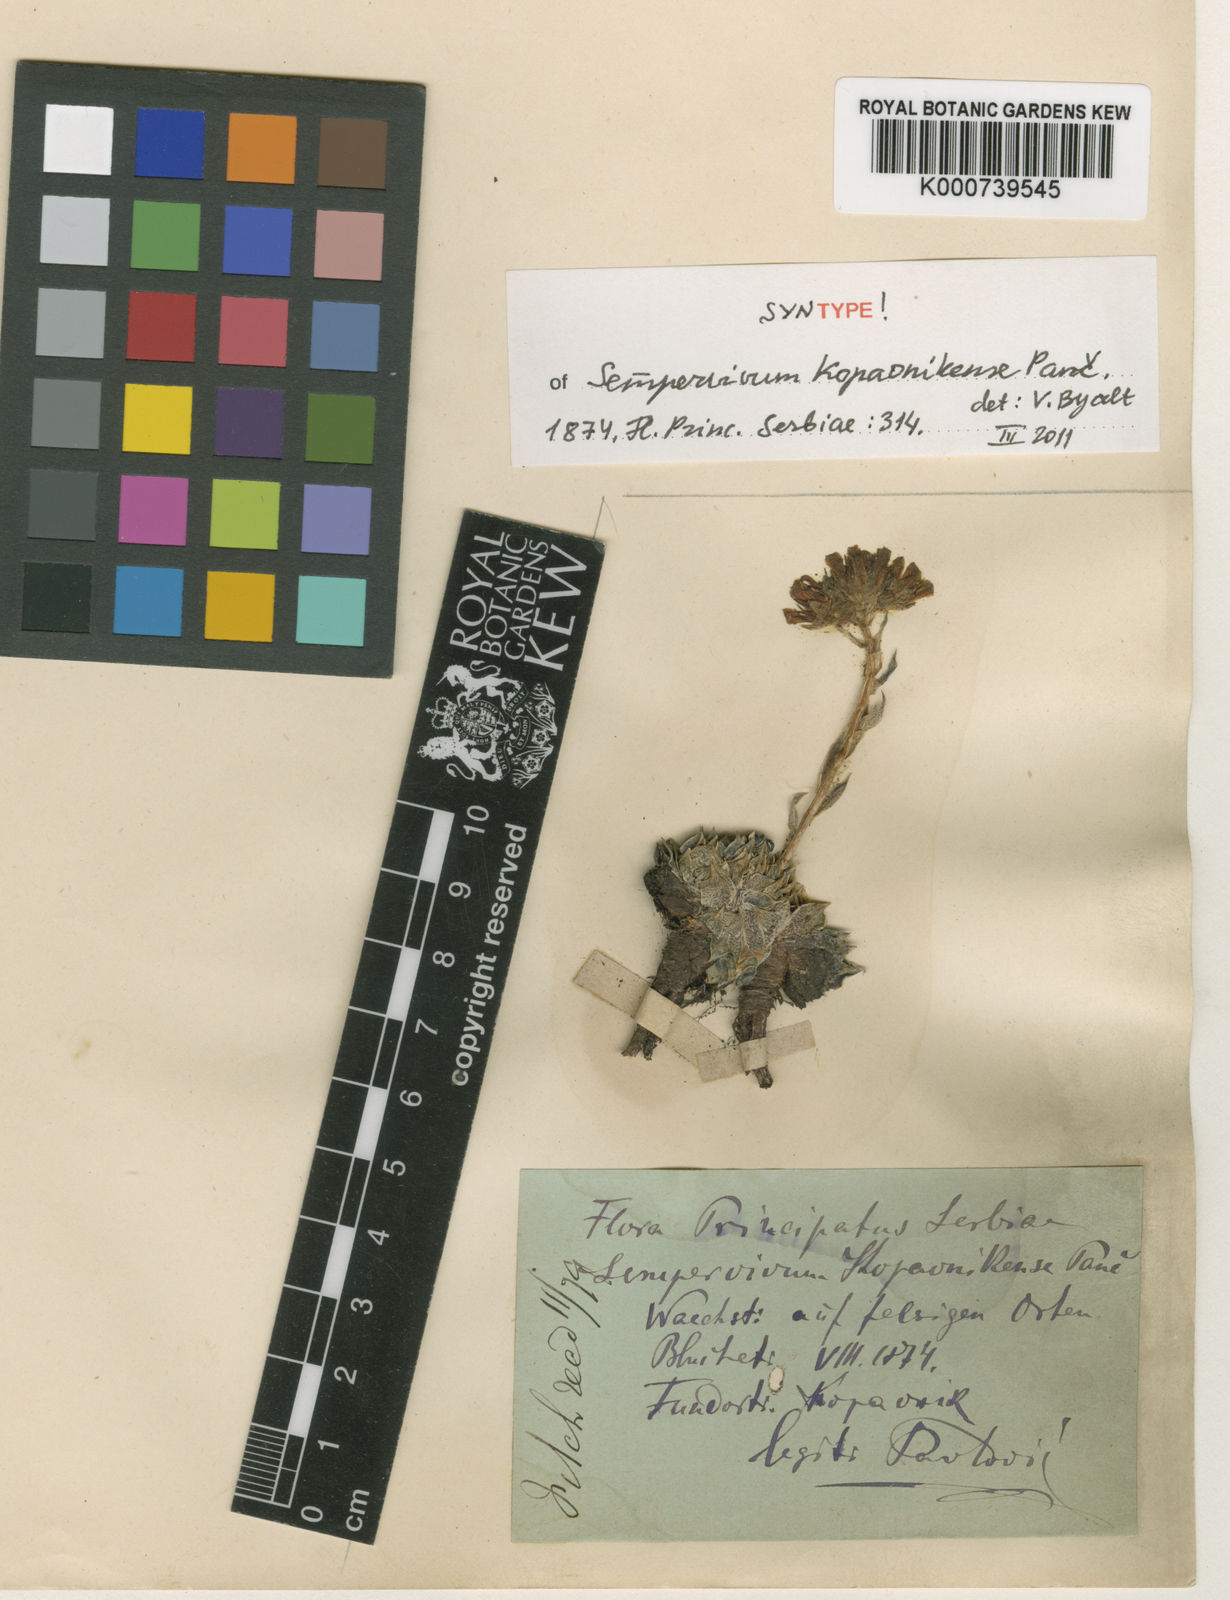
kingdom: Plantae
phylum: Tracheophyta
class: Magnoliopsida
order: Saxifragales
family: Crassulaceae
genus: Sempervivum
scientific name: Sempervivum heuffelii
